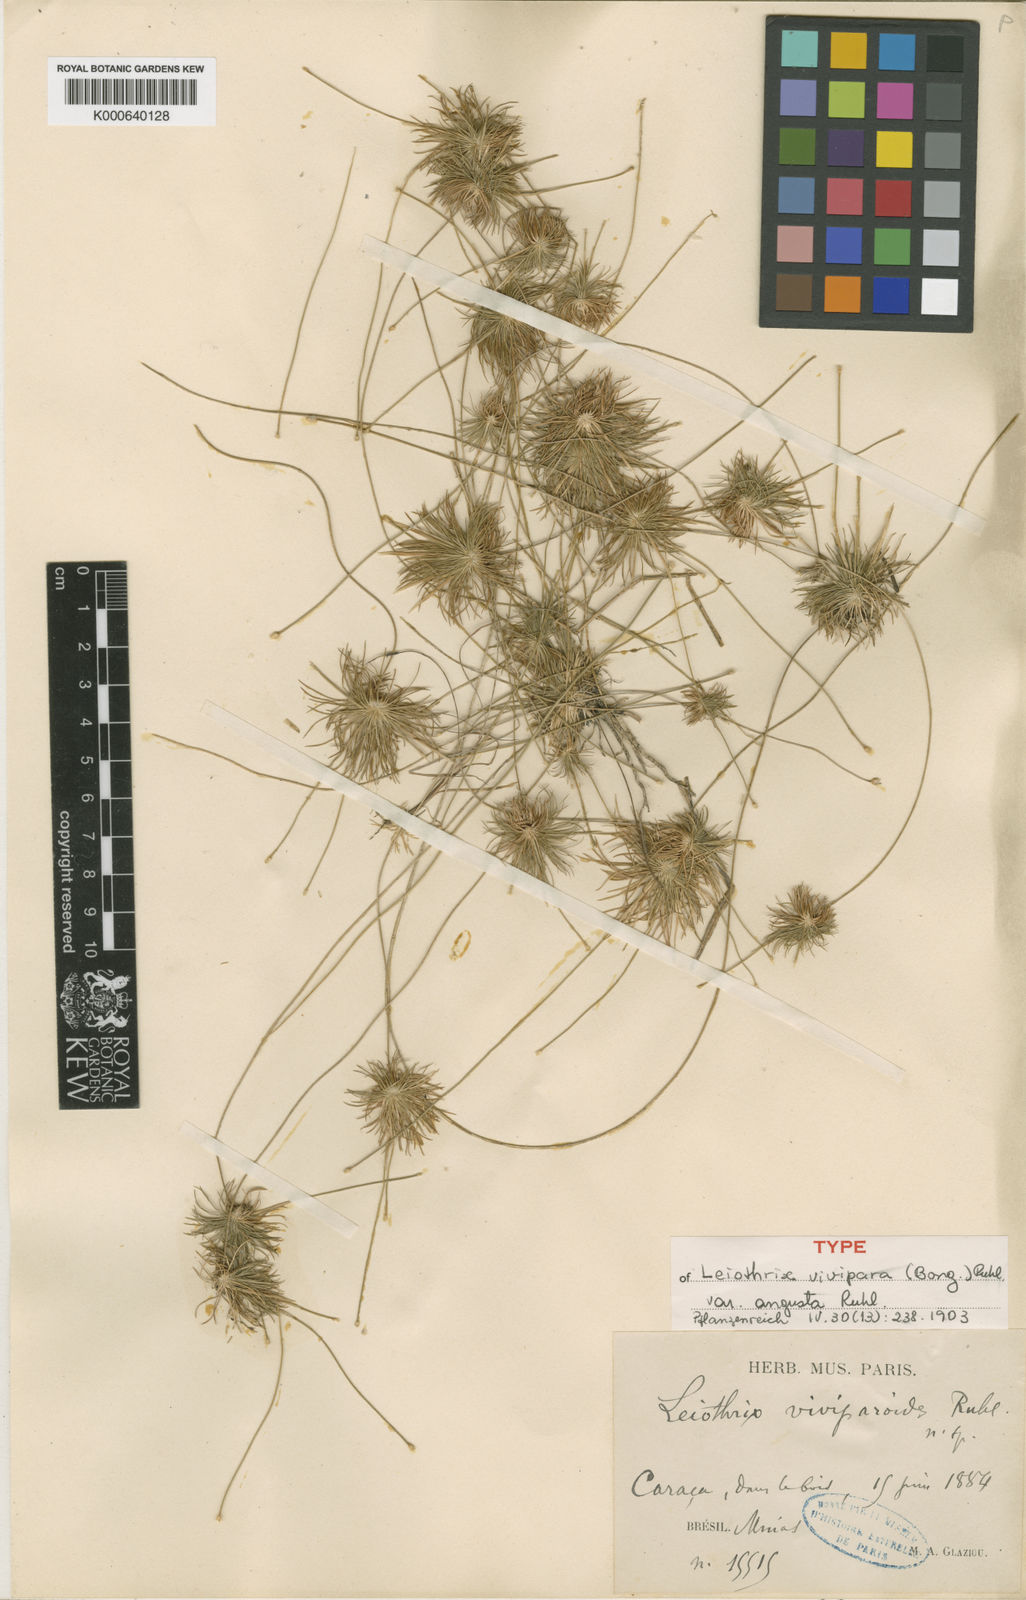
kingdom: Plantae
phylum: Tracheophyta
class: Liliopsida
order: Poales
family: Eriocaulaceae
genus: Leiothrix
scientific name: Leiothrix vivipara
